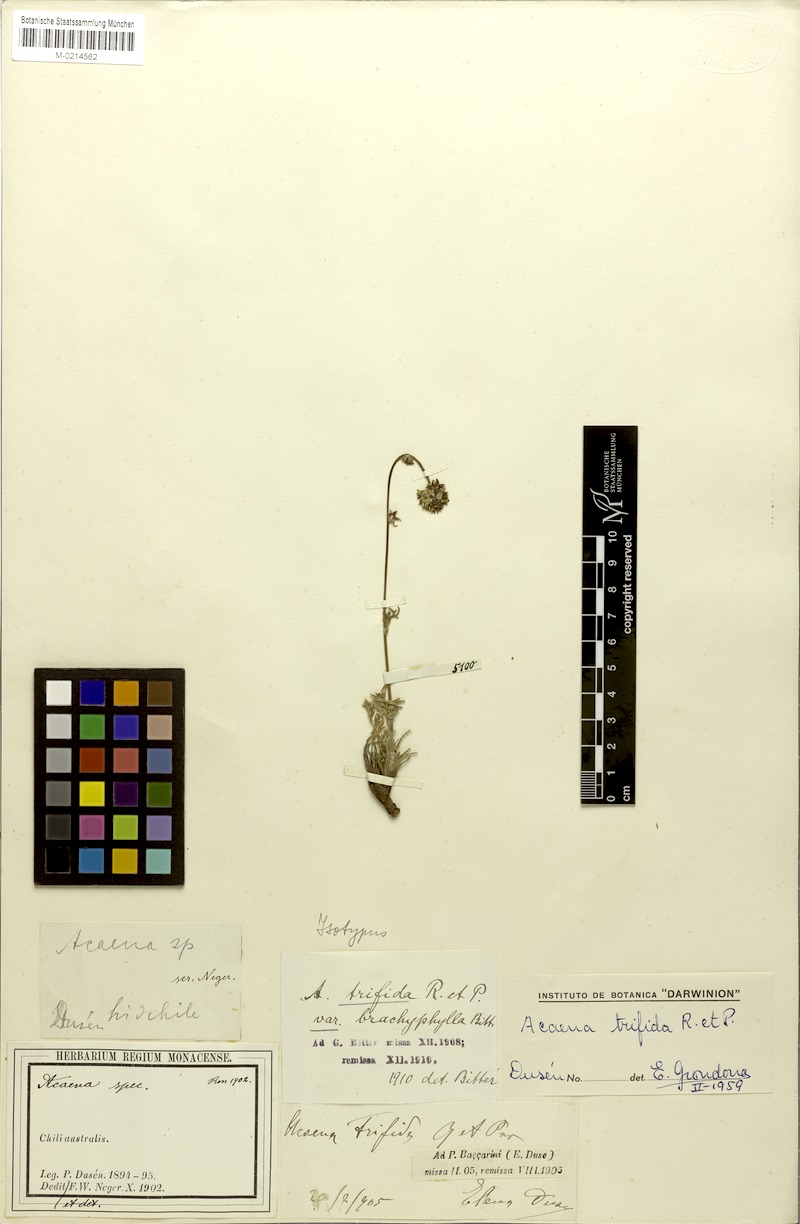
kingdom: Plantae
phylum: Tracheophyta
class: Magnoliopsida
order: Rosales
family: Rosaceae
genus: Acaena
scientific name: Acaena trifida
